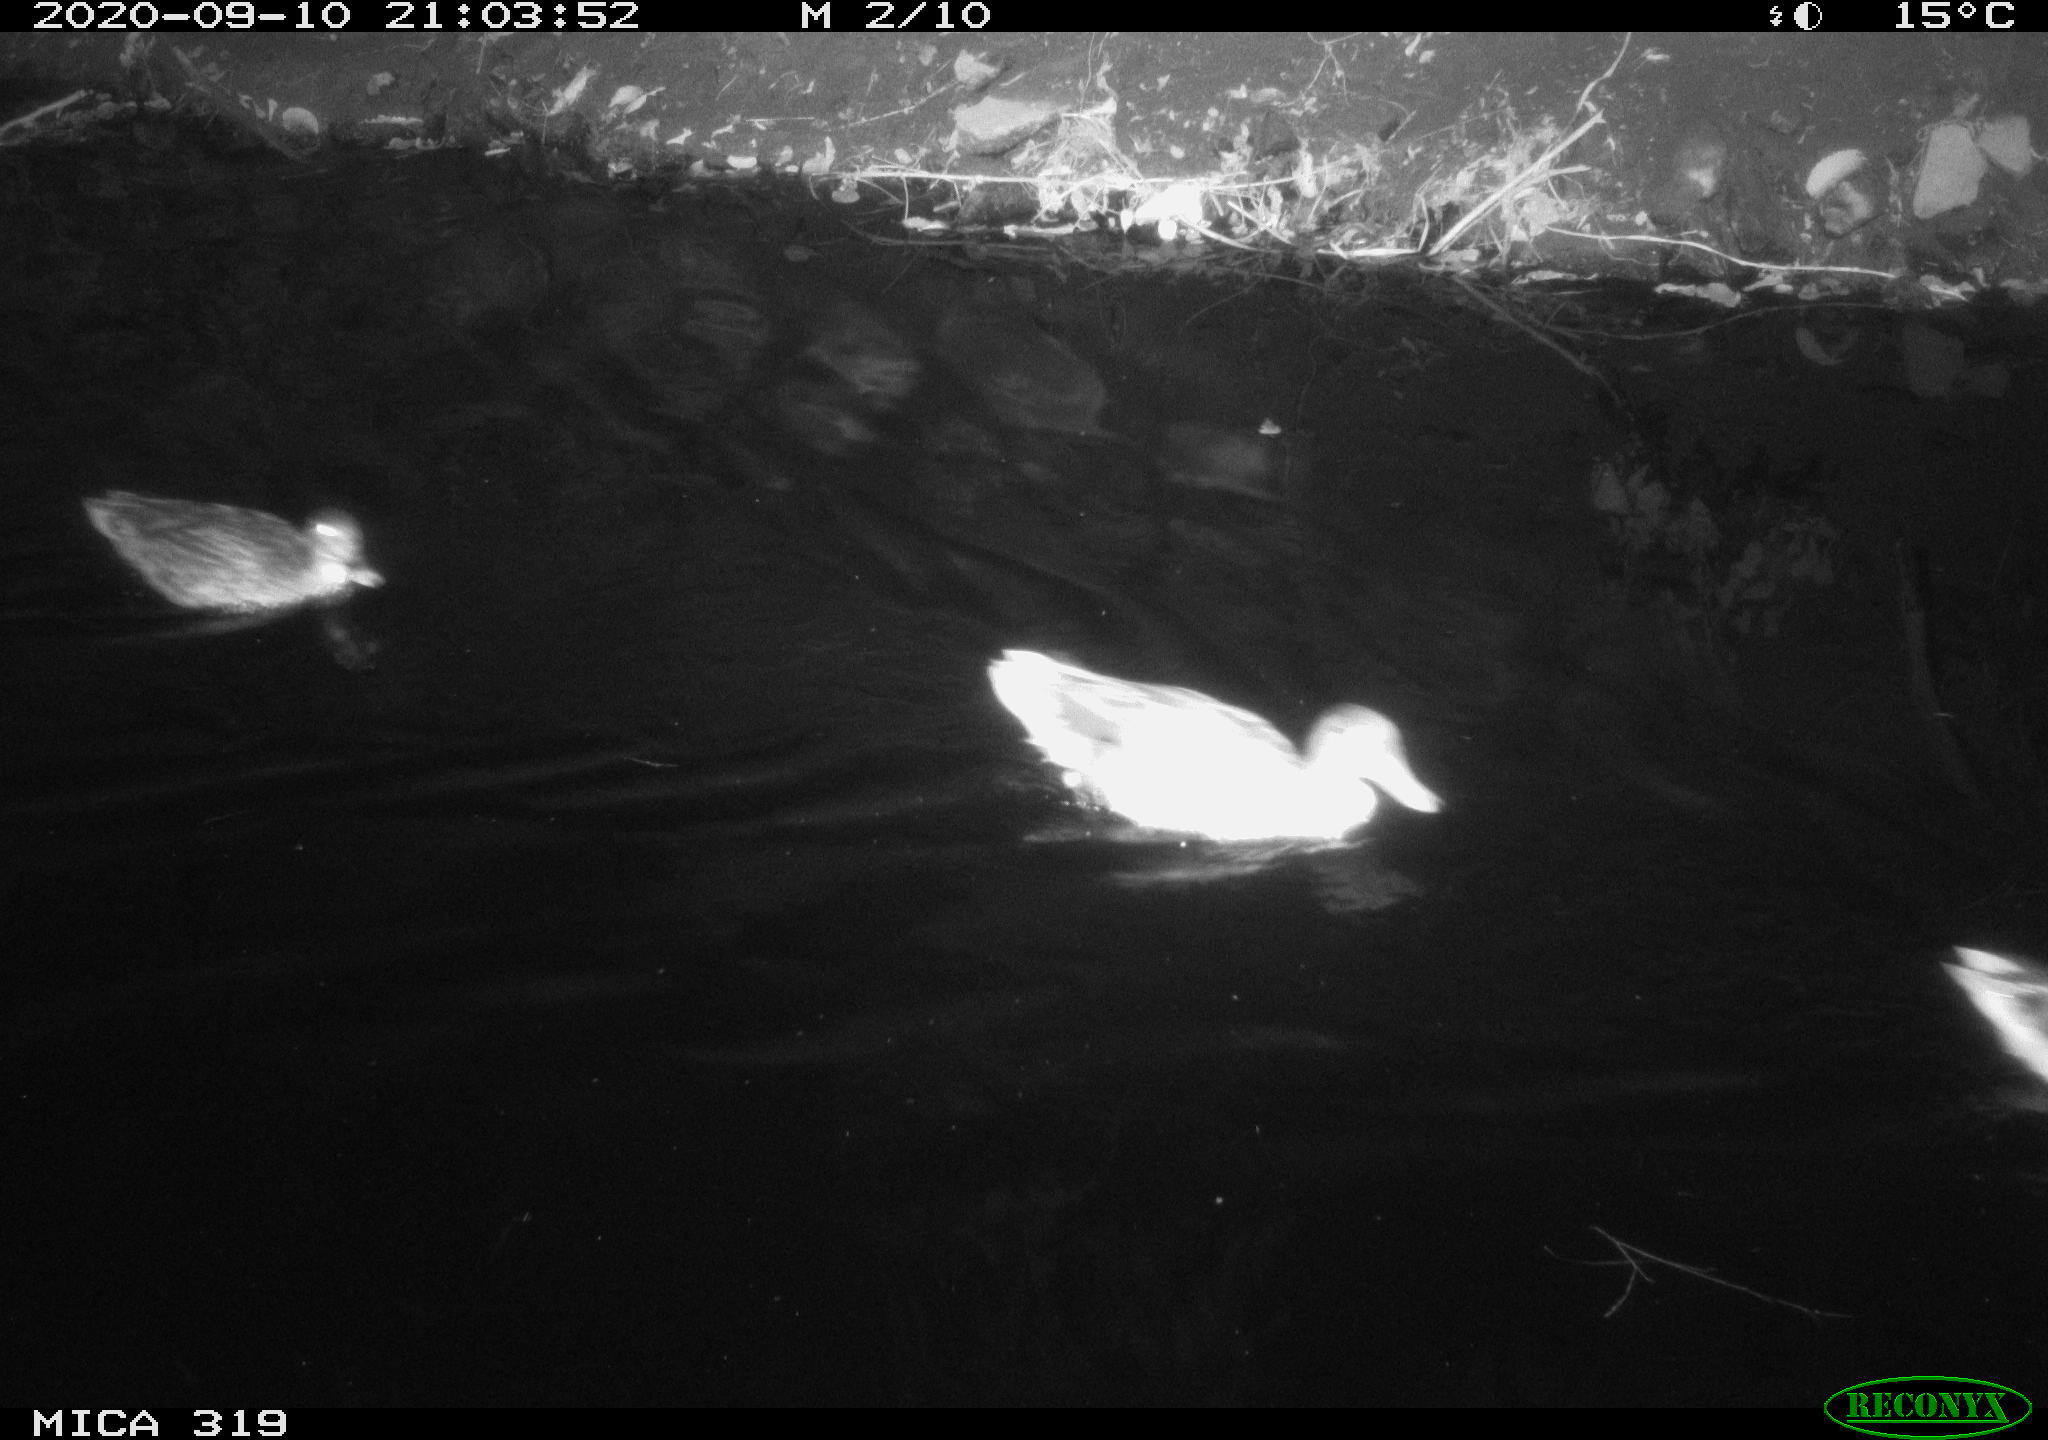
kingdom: Animalia
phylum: Chordata
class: Aves
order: Anseriformes
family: Anatidae
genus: Anas
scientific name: Anas platyrhynchos
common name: Mallard
